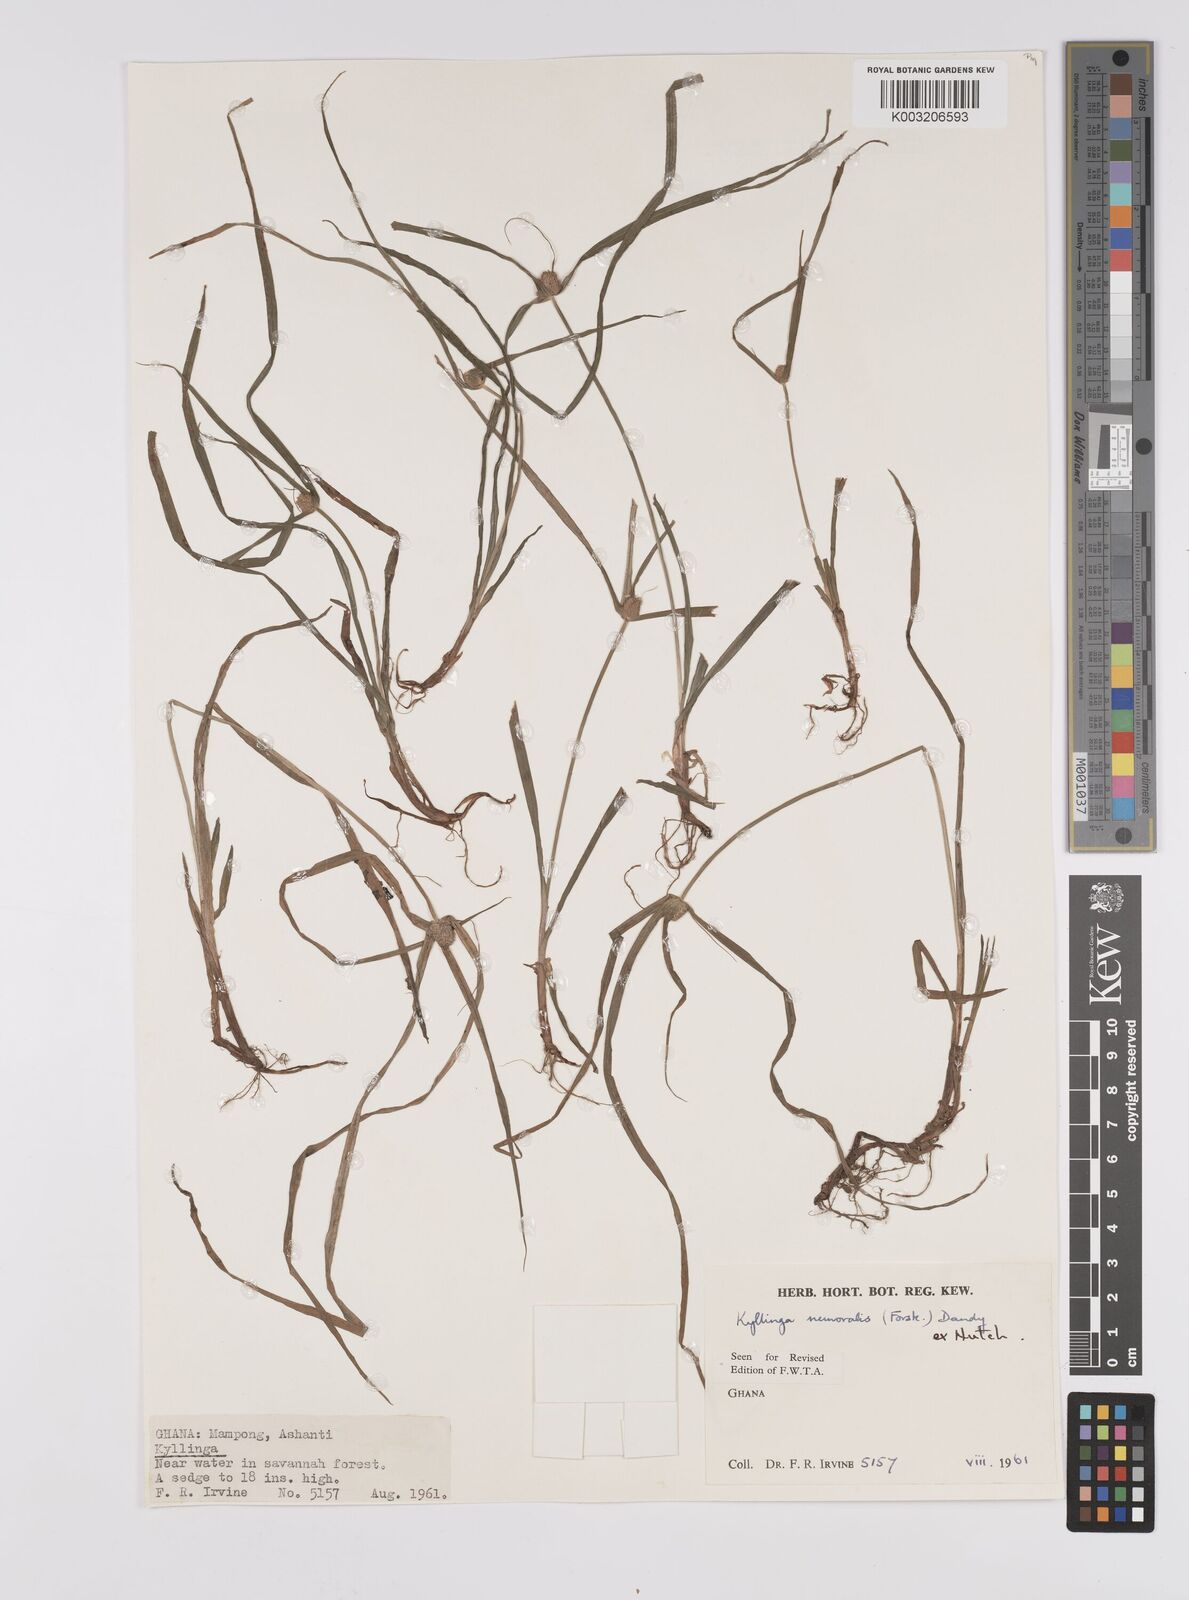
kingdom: Plantae
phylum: Tracheophyta
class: Liliopsida
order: Poales
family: Cyperaceae
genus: Cyperus
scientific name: Cyperus nemoralis
